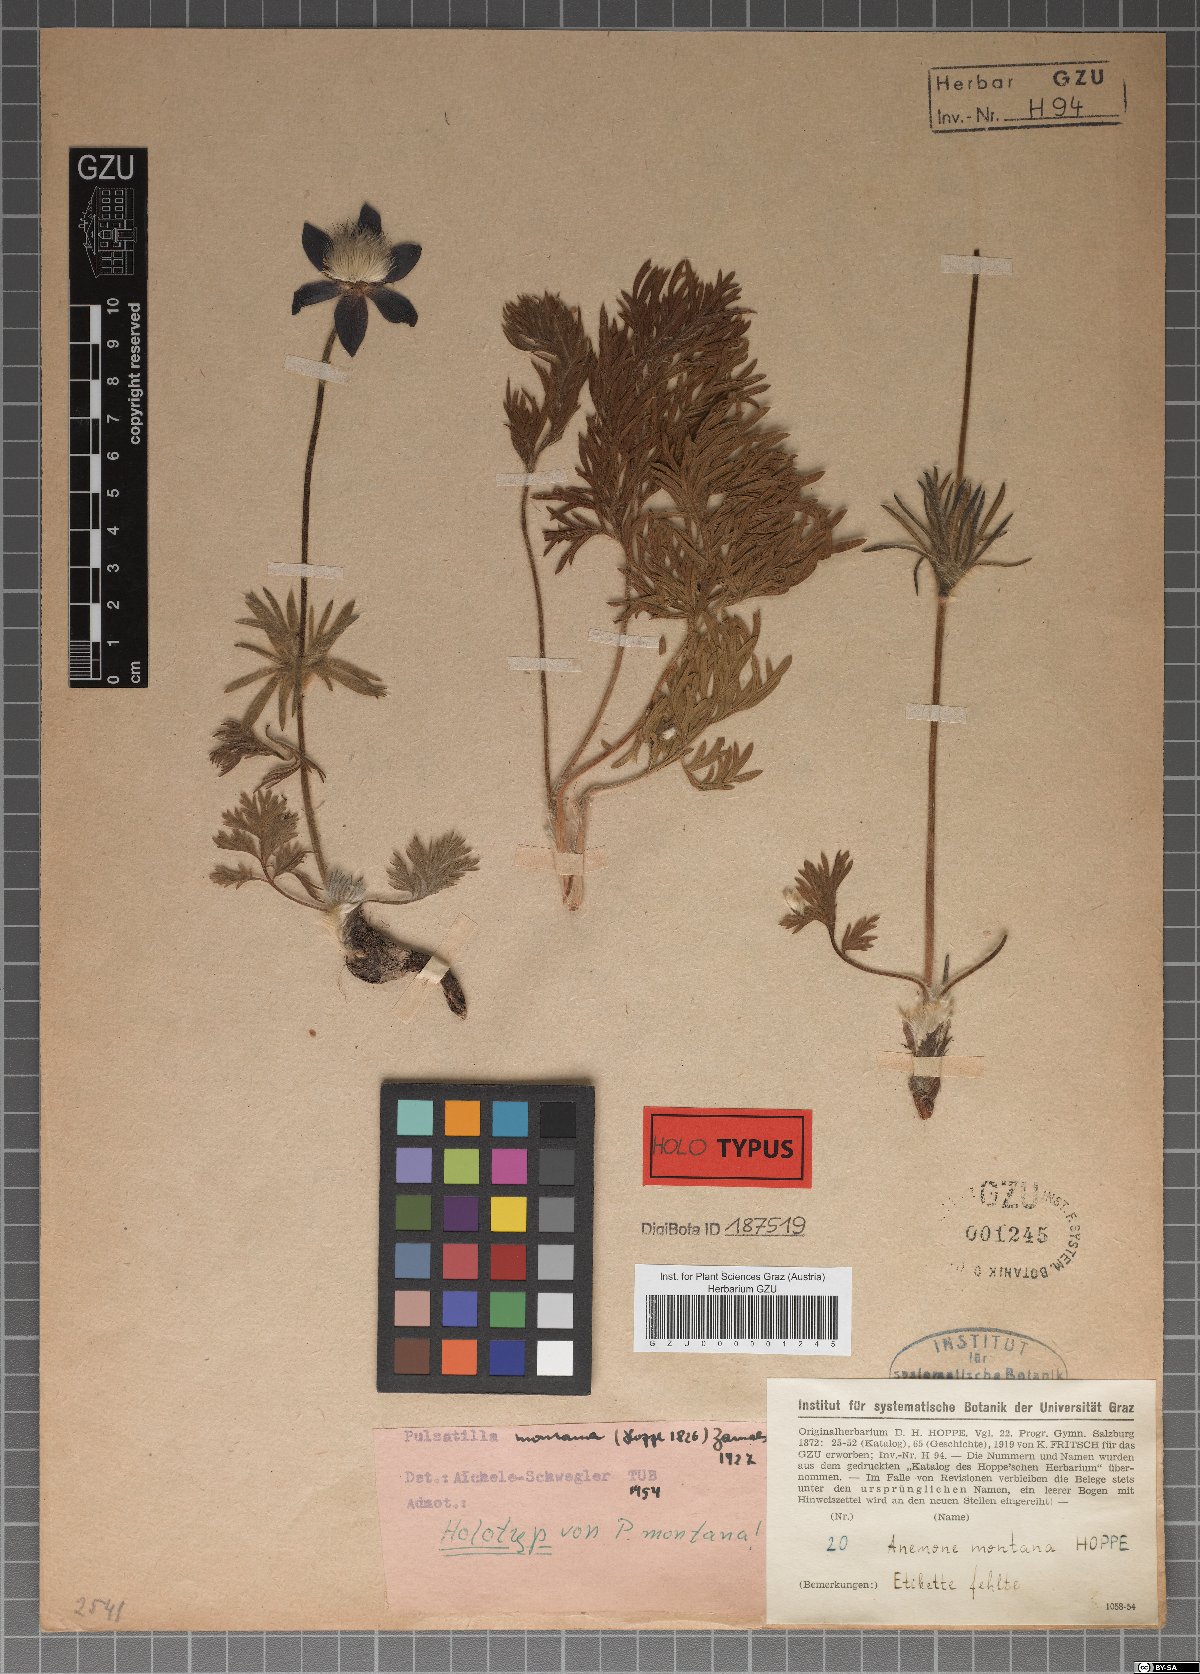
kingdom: Plantae
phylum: Tracheophyta
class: Magnoliopsida
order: Ranunculales
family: Ranunculaceae
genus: Pulsatilla
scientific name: Pulsatilla montana
